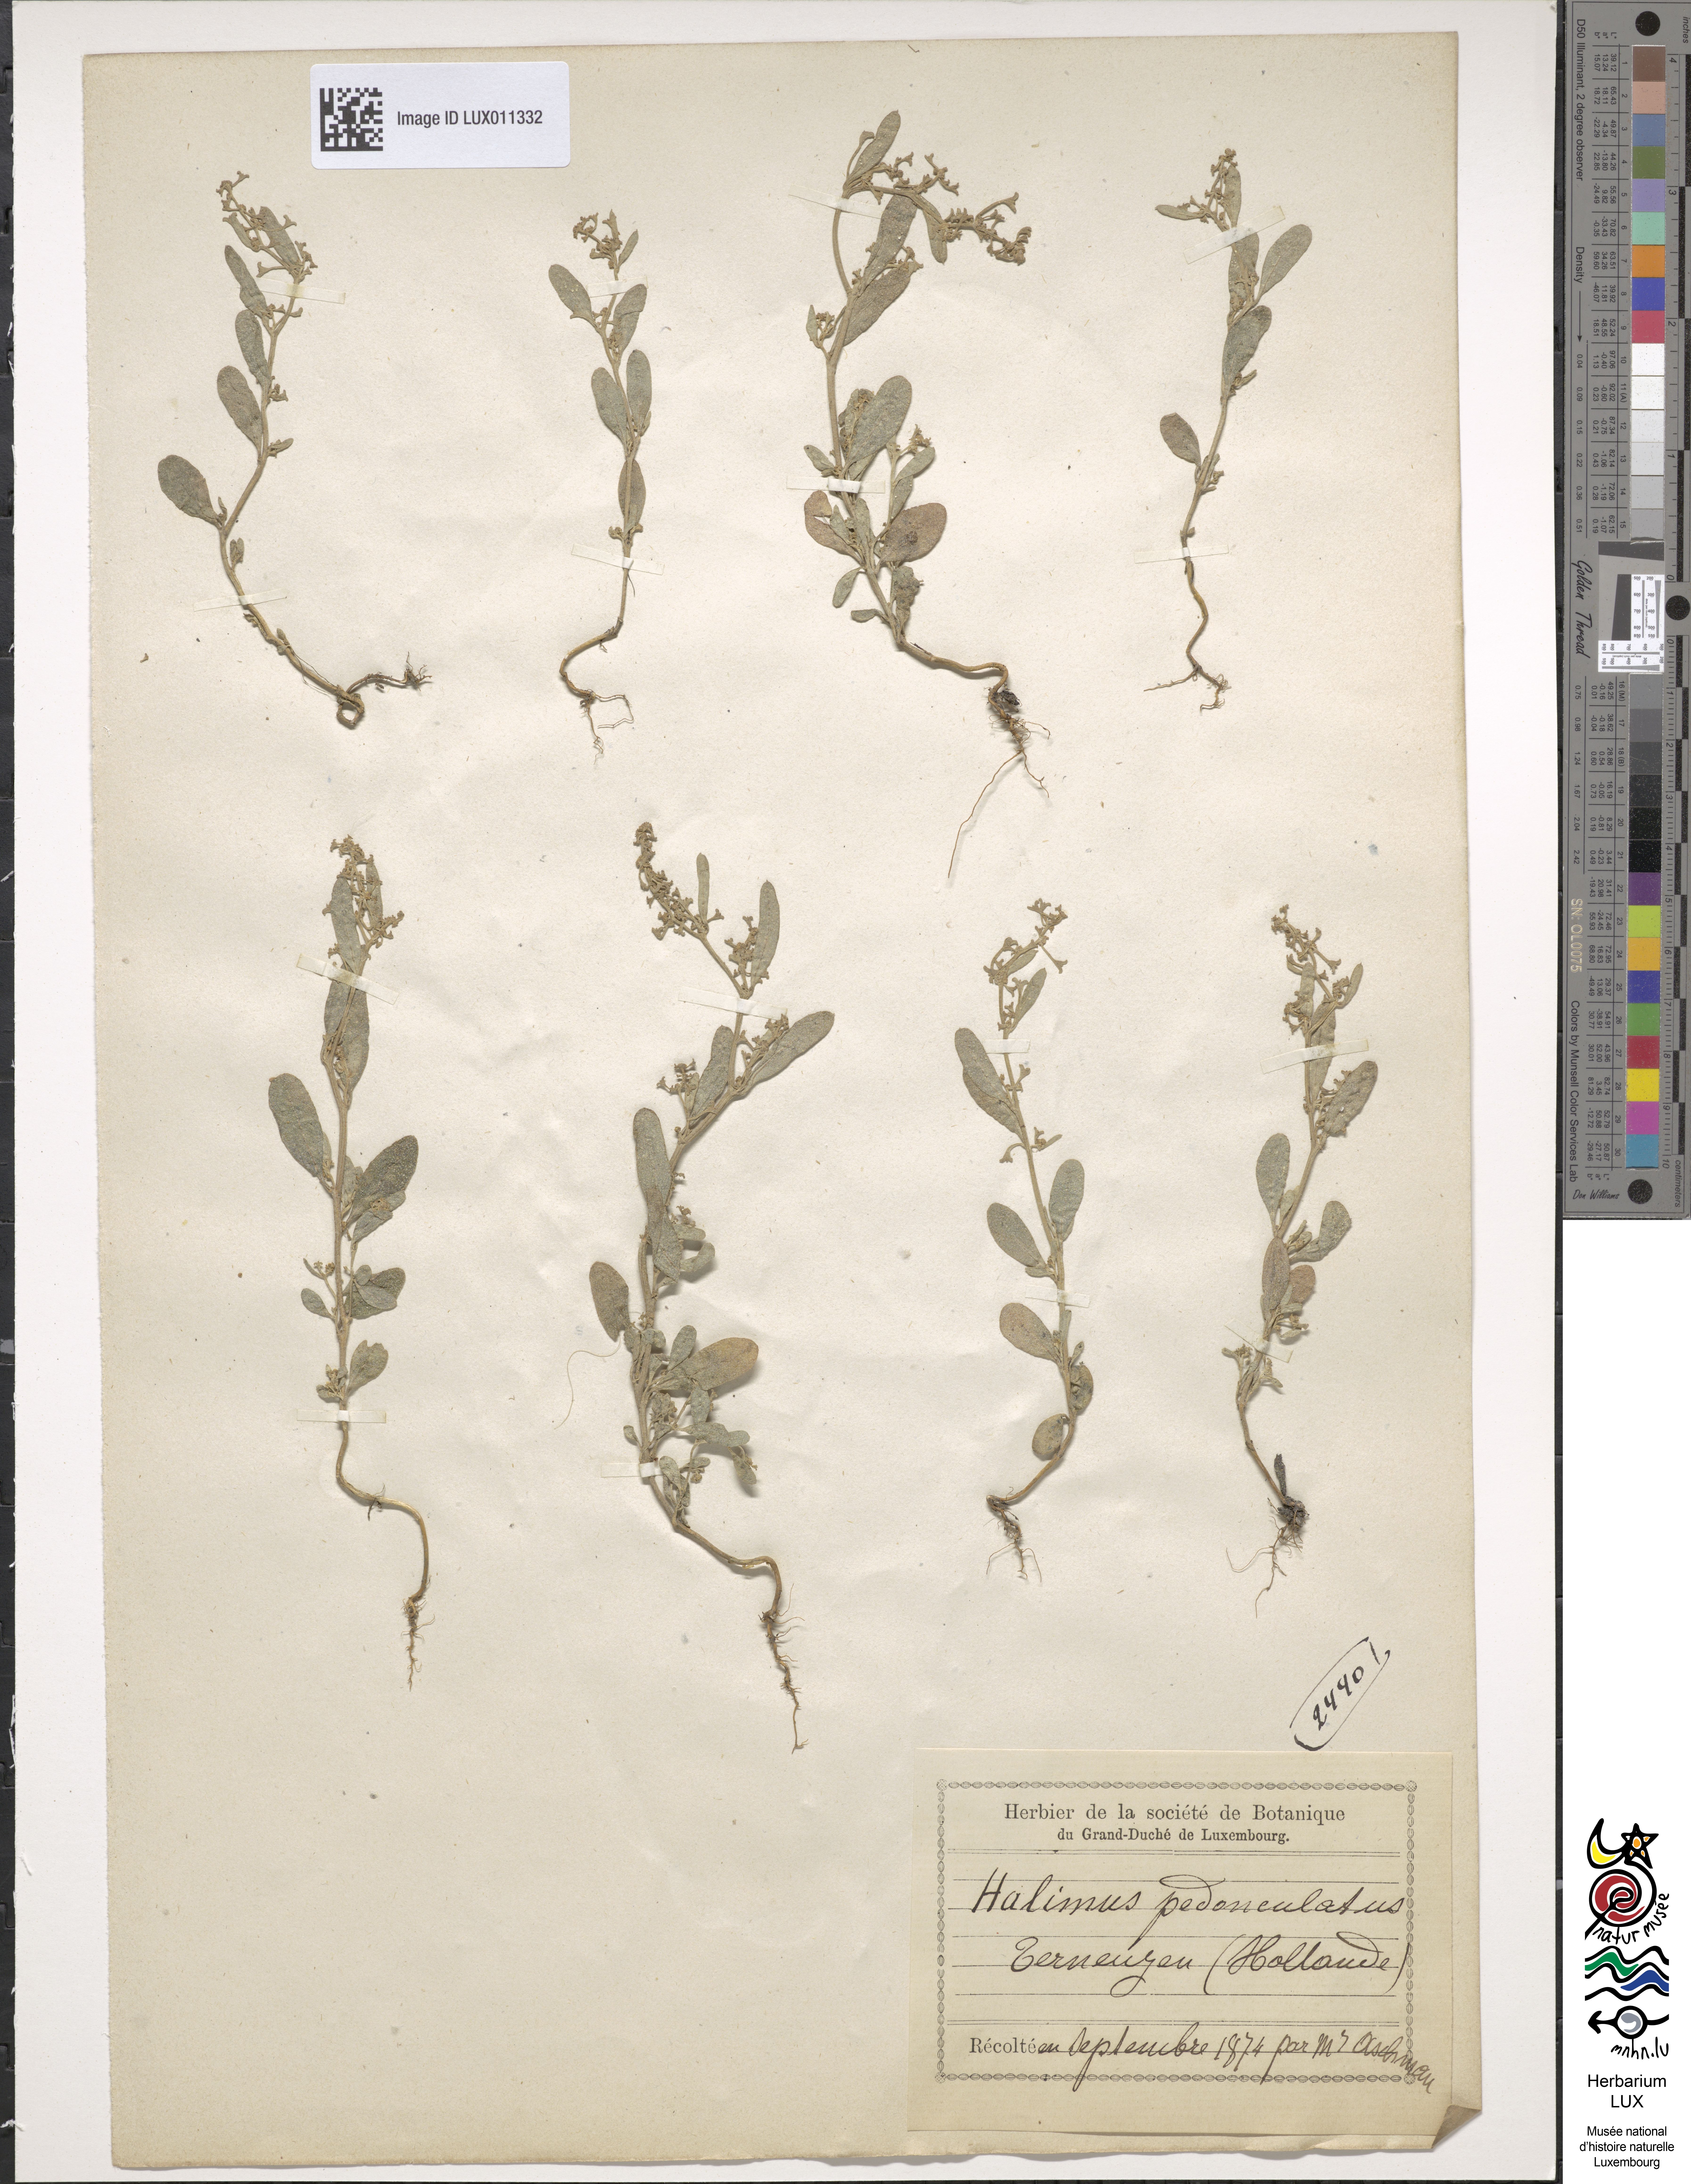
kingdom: Plantae
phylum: Tracheophyta
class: Magnoliopsida
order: Caryophyllales
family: Amaranthaceae
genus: Halimione
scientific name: Halimione pedunculata
